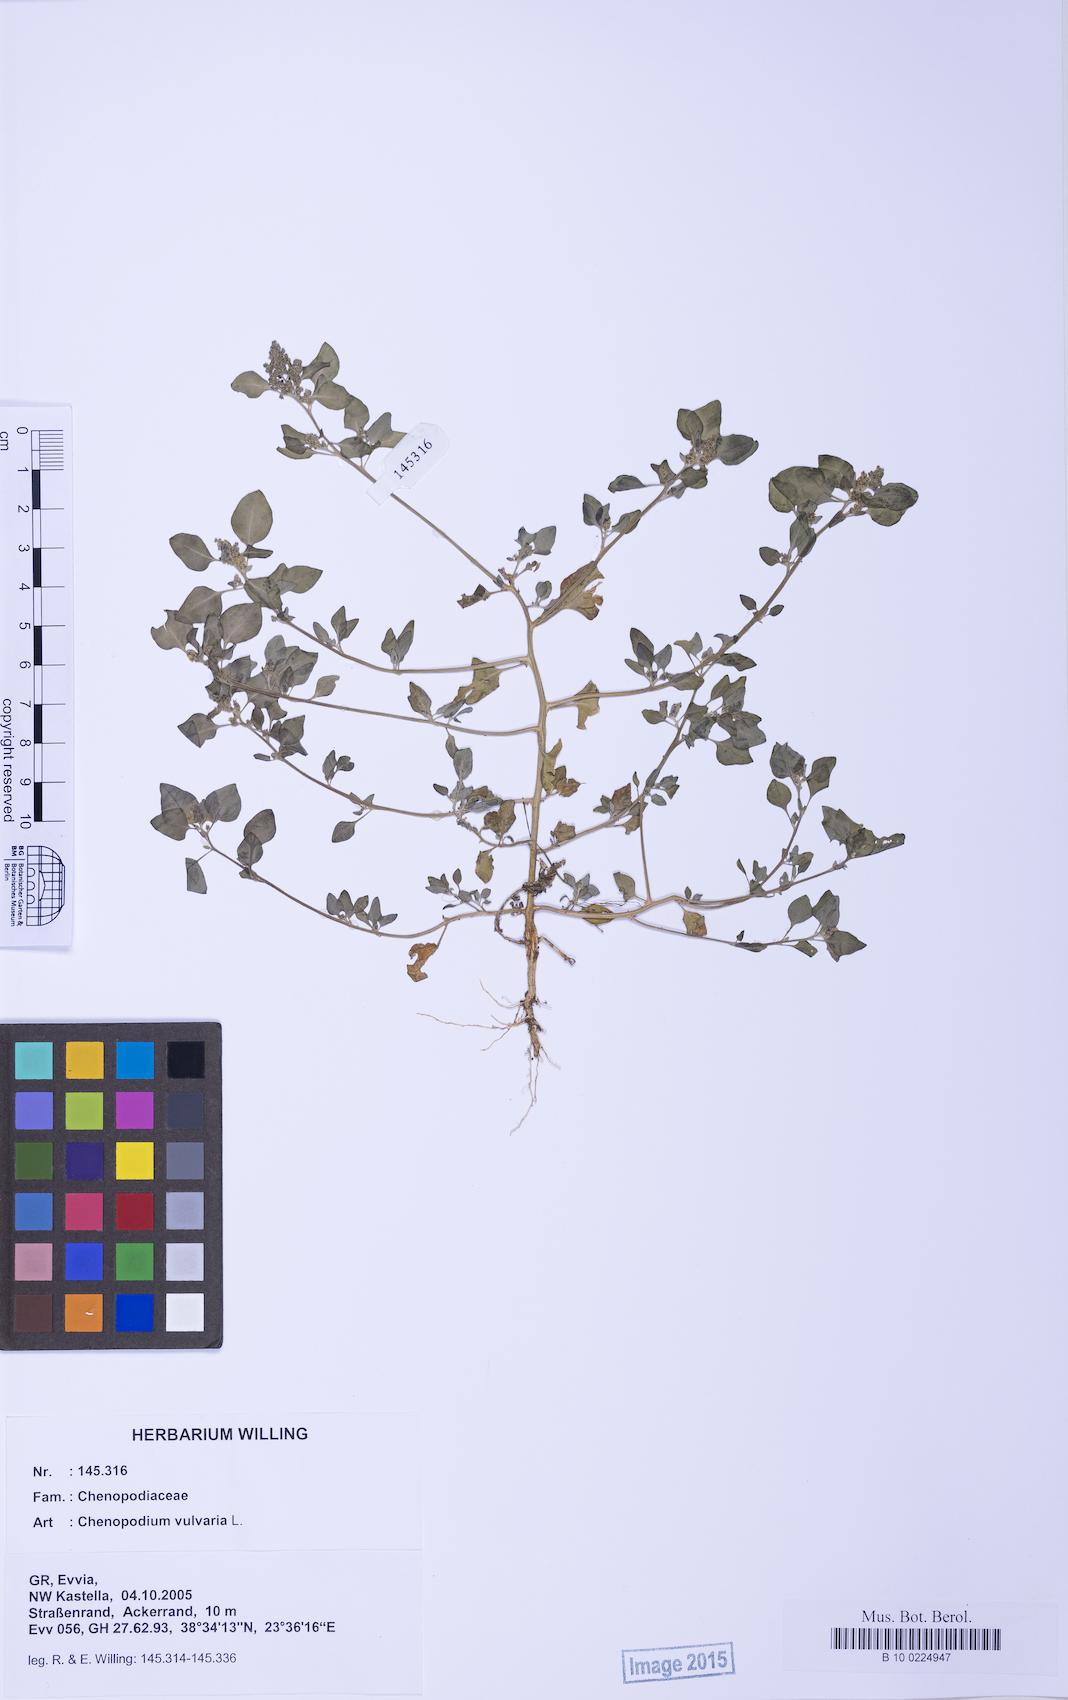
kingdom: Plantae
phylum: Tracheophyta
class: Magnoliopsida
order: Caryophyllales
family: Amaranthaceae
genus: Chenopodium
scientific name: Chenopodium vulvaria
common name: Stinking goosefoot
